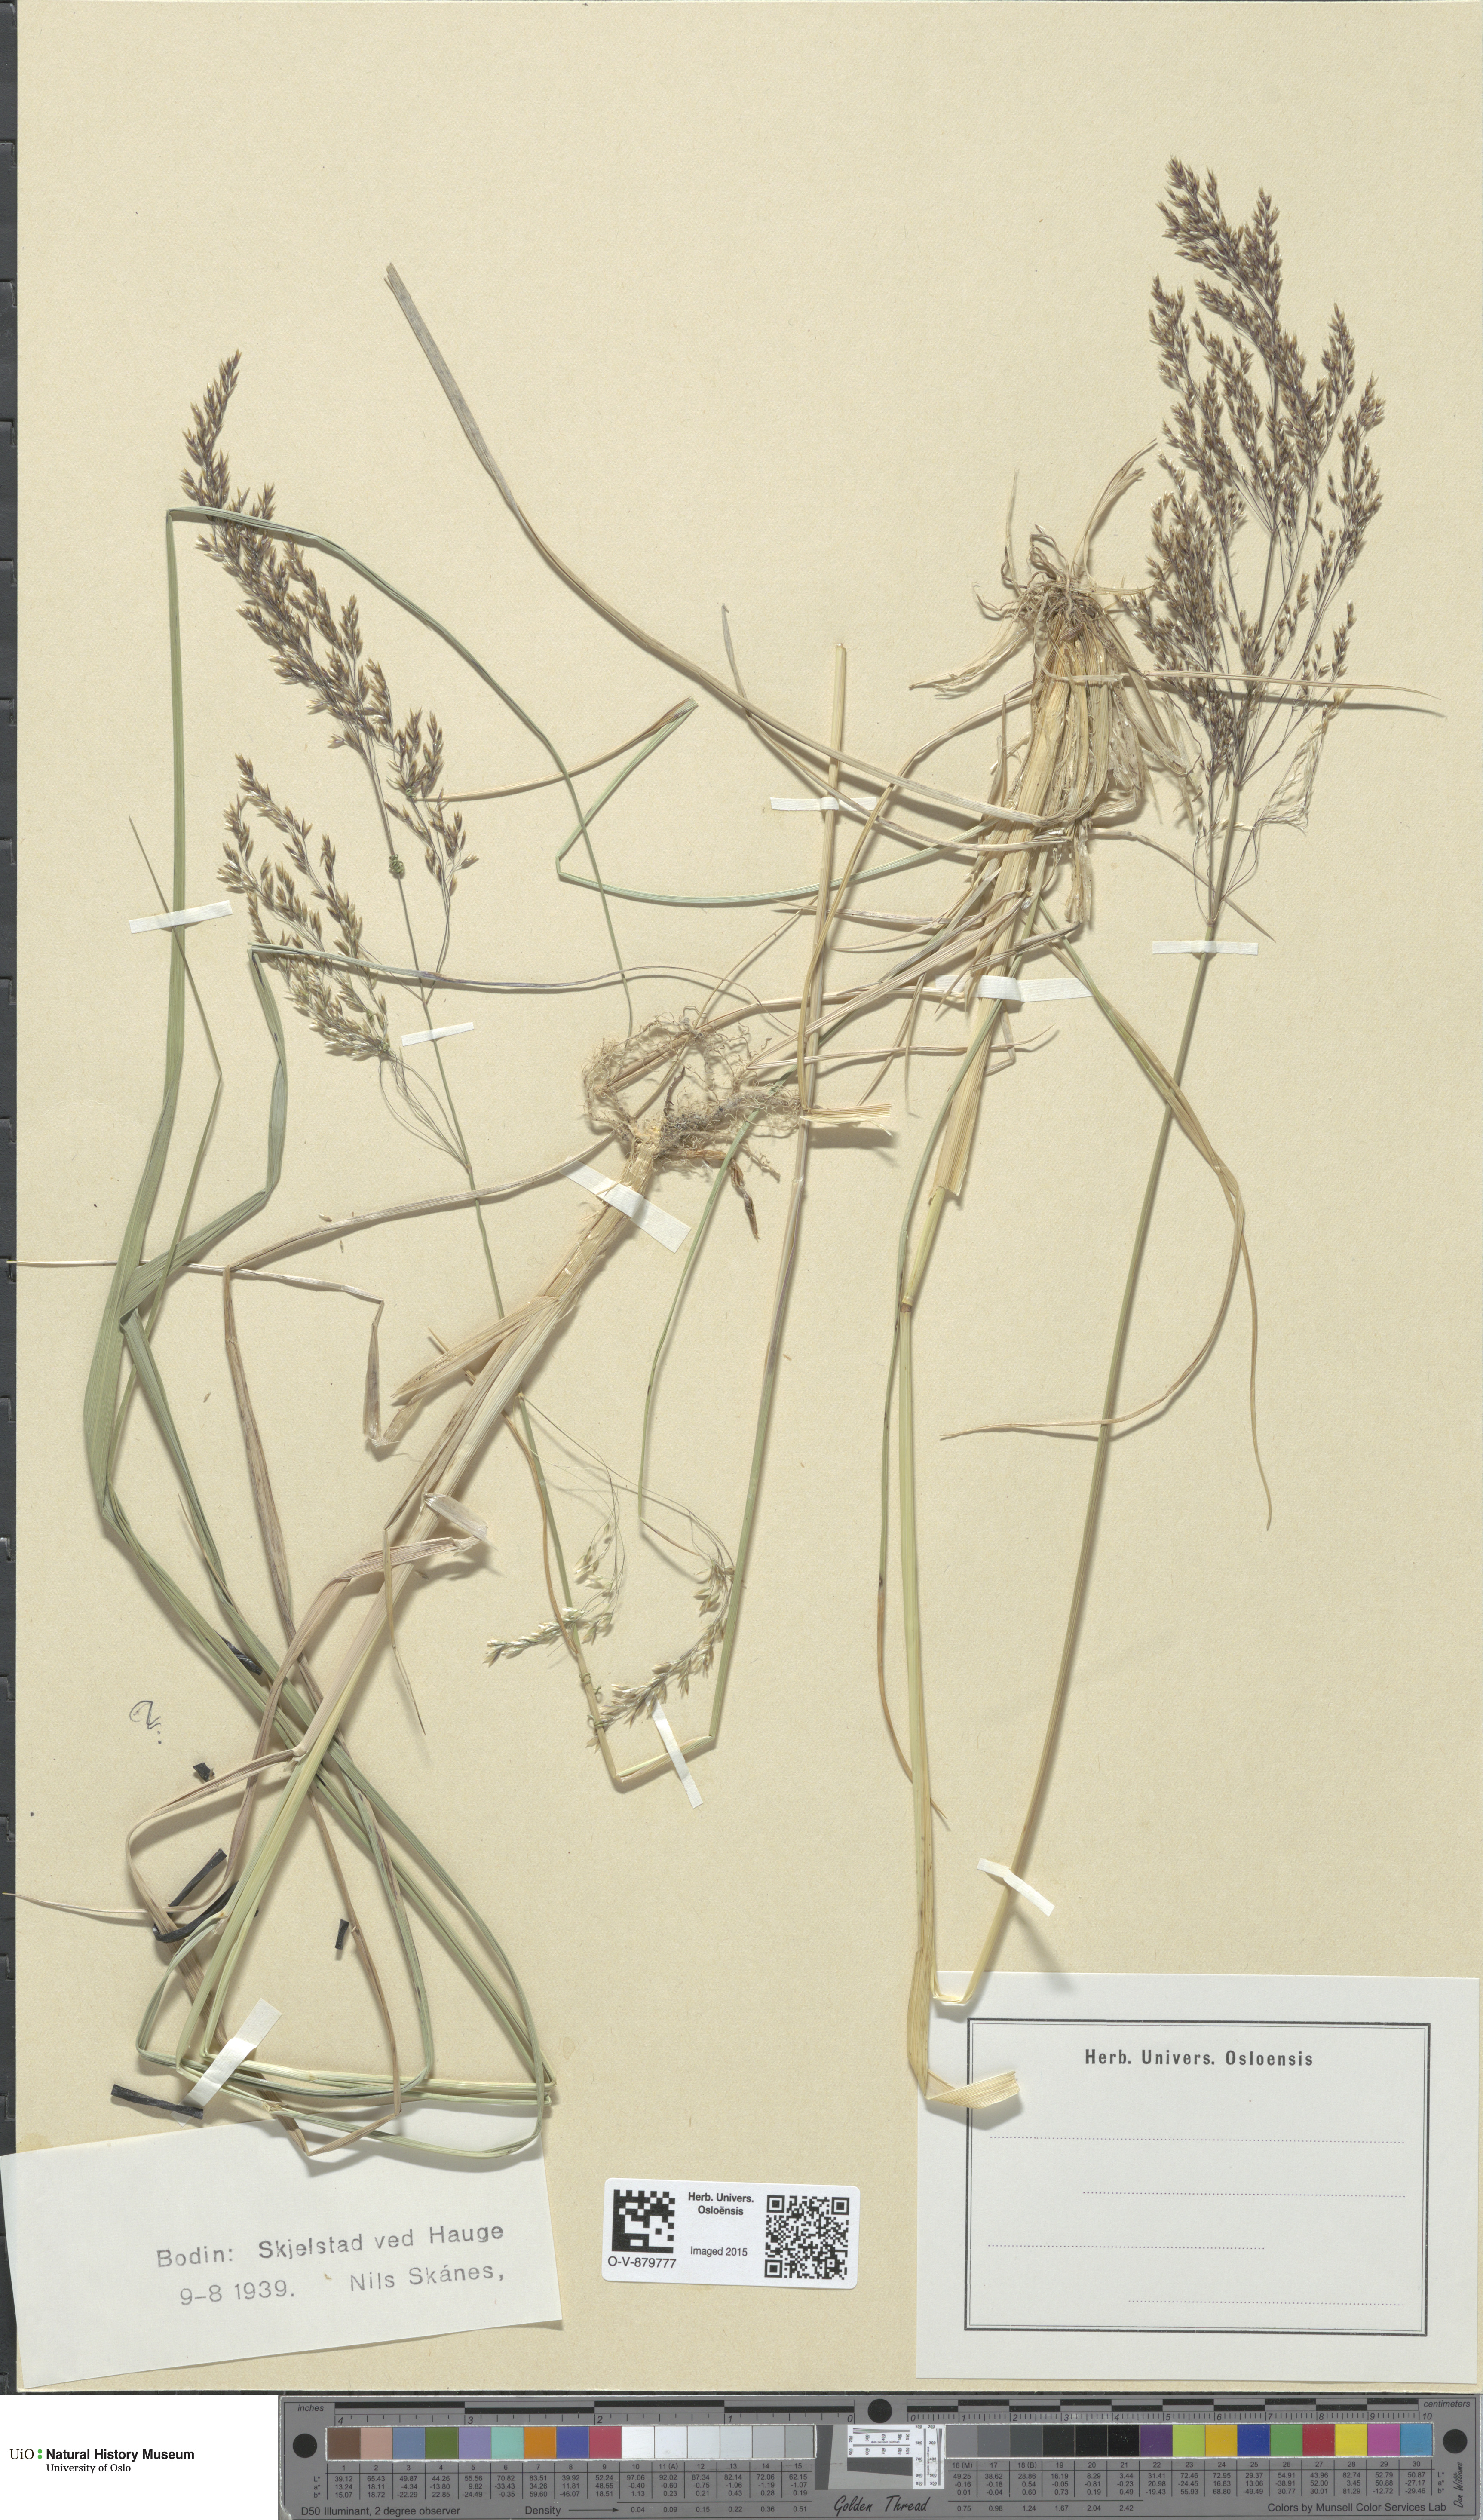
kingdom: Plantae
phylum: Tracheophyta
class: Liliopsida
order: Poales
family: Poaceae
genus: Deschampsia
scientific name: Deschampsia cespitosa
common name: Tufted hair-grass
